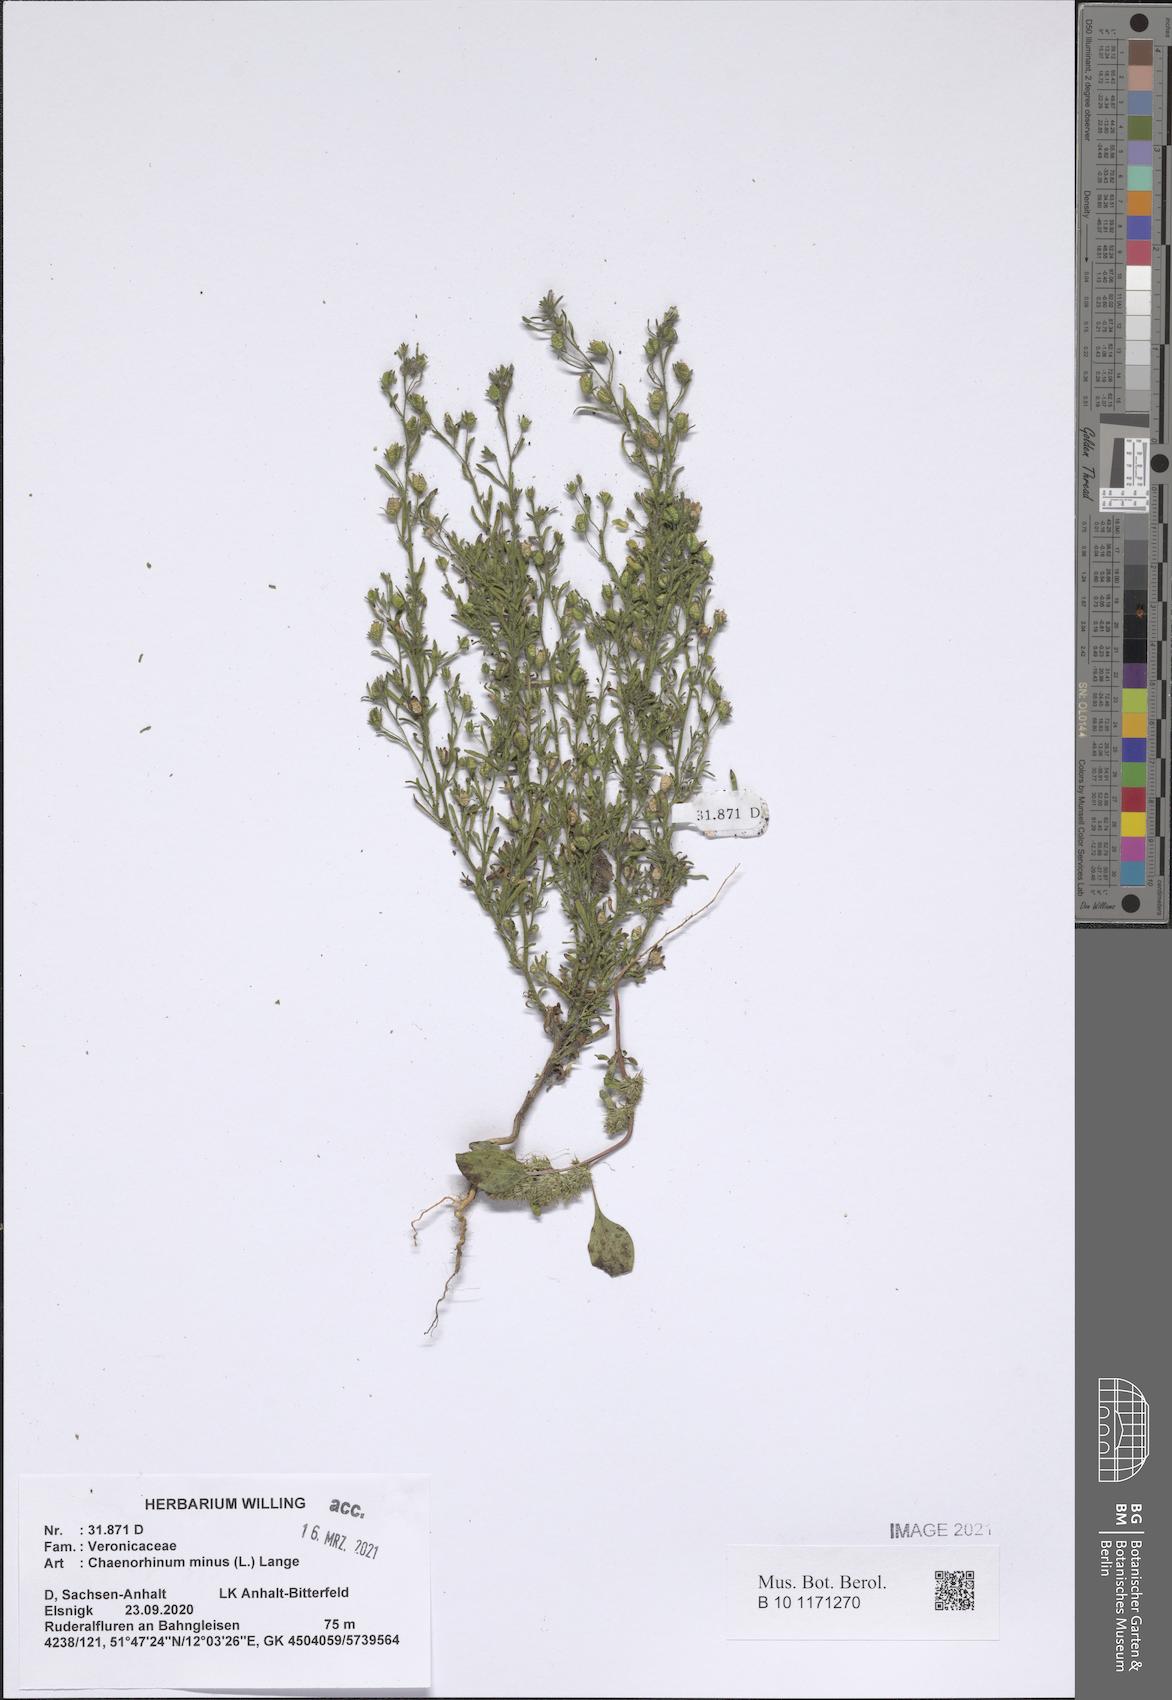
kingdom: Plantae
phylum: Tracheophyta
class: Magnoliopsida
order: Lamiales
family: Plantaginaceae
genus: Chaenorhinum
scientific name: Chaenorhinum minus
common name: Dwarf snapdragon
